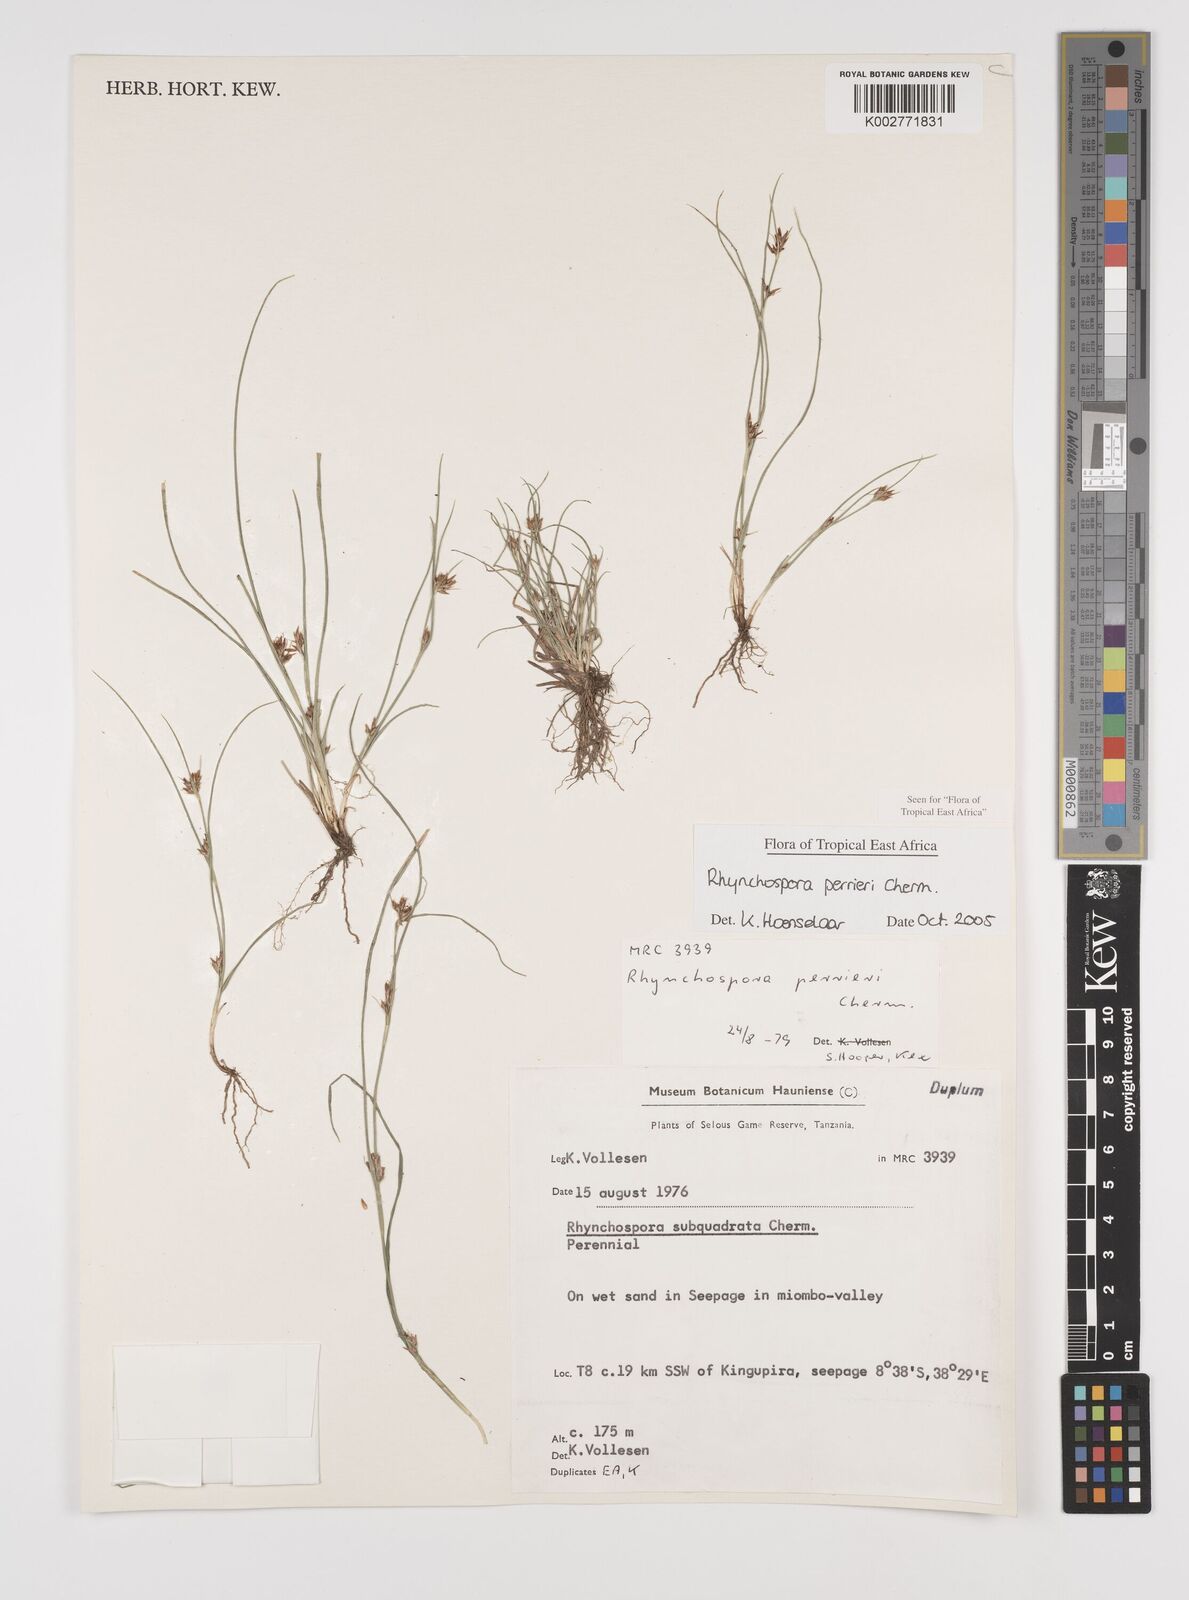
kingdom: Plantae
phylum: Tracheophyta
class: Liliopsida
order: Poales
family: Cyperaceae
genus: Rhynchospora
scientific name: Rhynchospora perrieri
